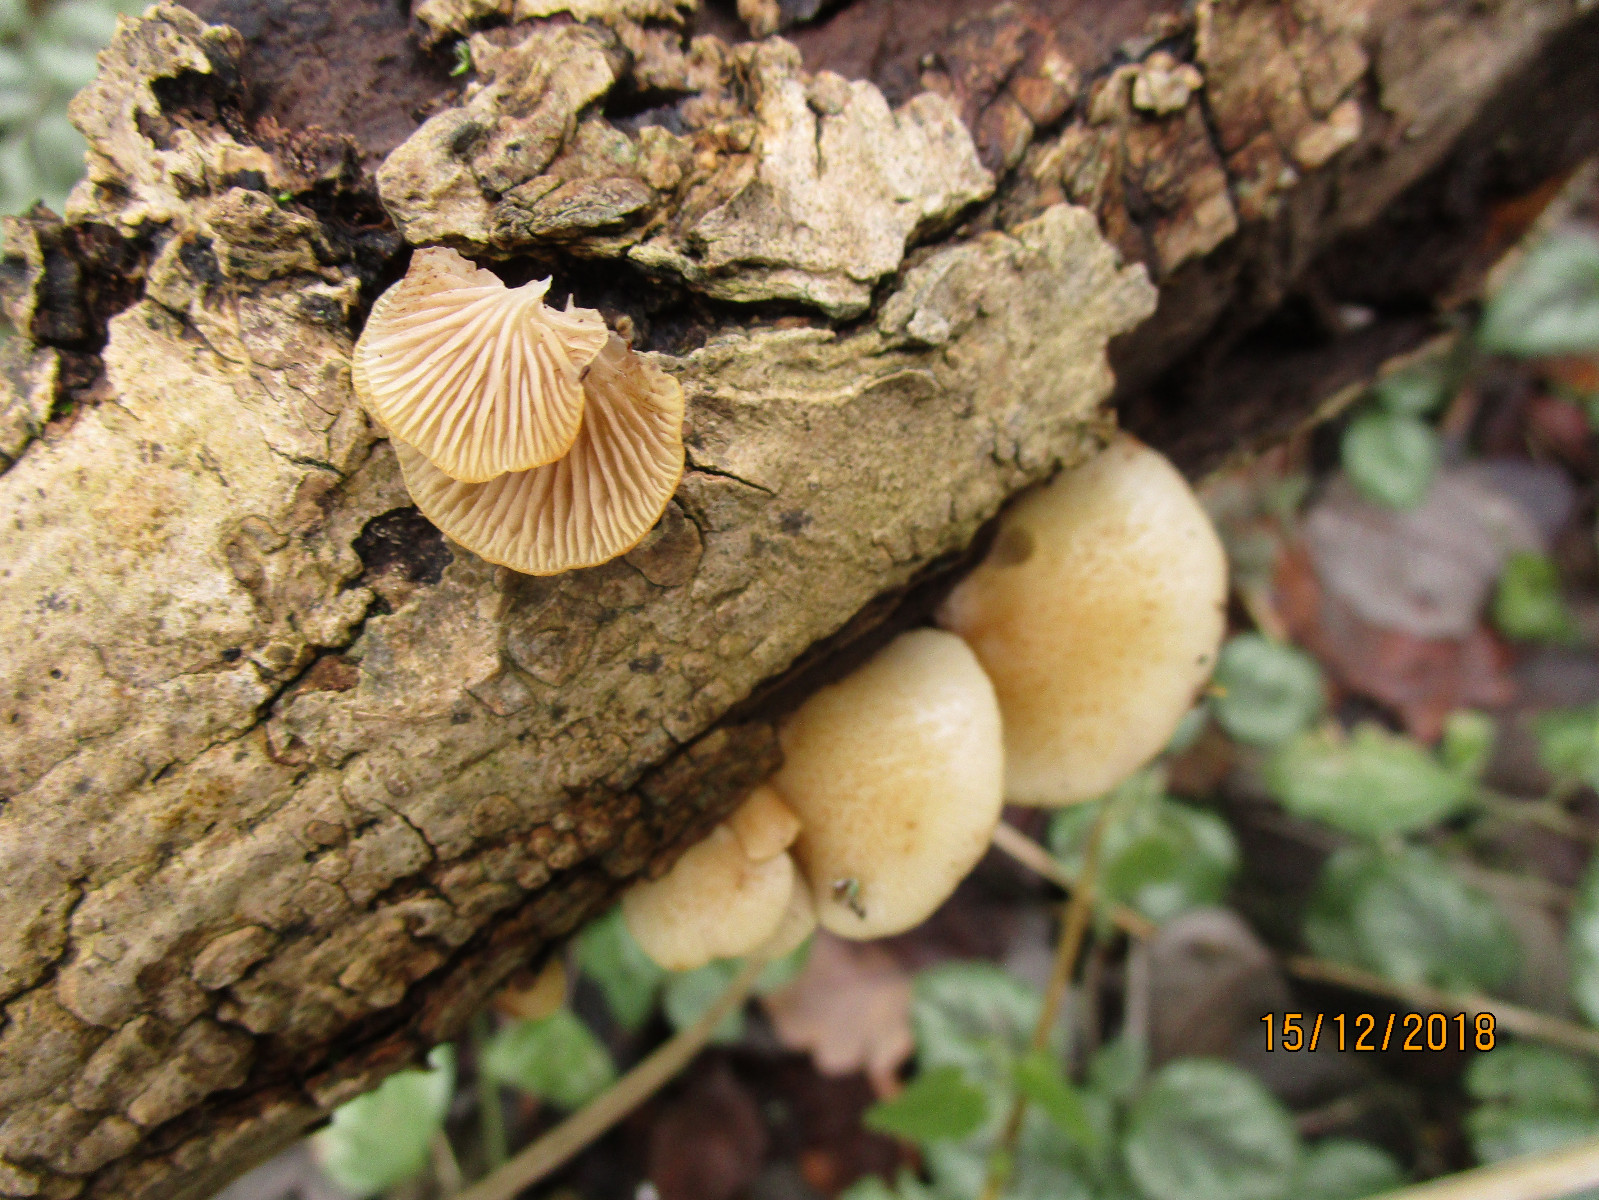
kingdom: Fungi
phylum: Basidiomycota
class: Agaricomycetes
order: Agaricales
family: Crepidotaceae
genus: Crepidotus
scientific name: Crepidotus calolepis
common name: småskællet muslingesvamp
